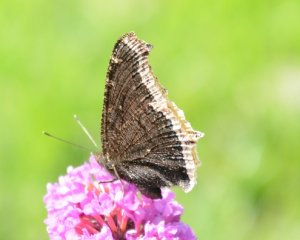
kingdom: Animalia
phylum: Arthropoda
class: Insecta
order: Lepidoptera
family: Nymphalidae
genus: Nymphalis
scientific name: Nymphalis antiopa
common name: Mourning Cloak
